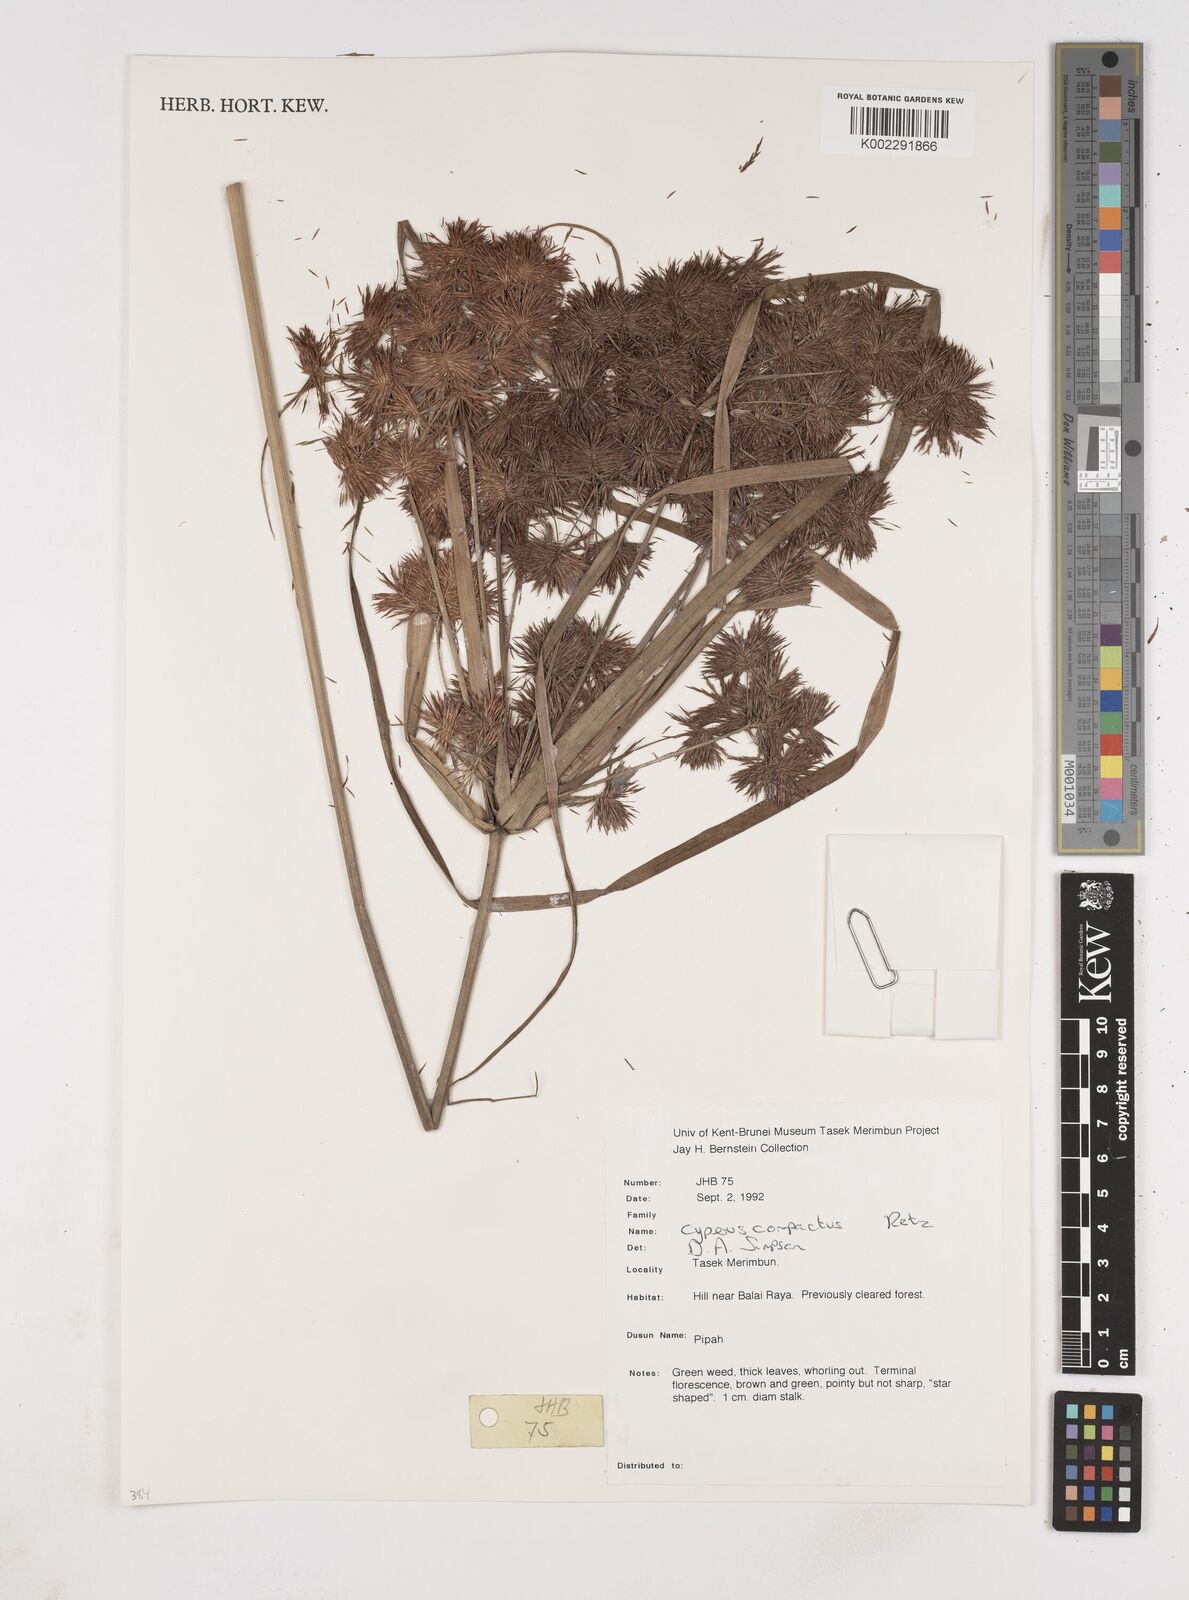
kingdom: Plantae
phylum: Tracheophyta
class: Liliopsida
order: Poales
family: Cyperaceae
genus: Cyperus
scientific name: Cyperus compactus
